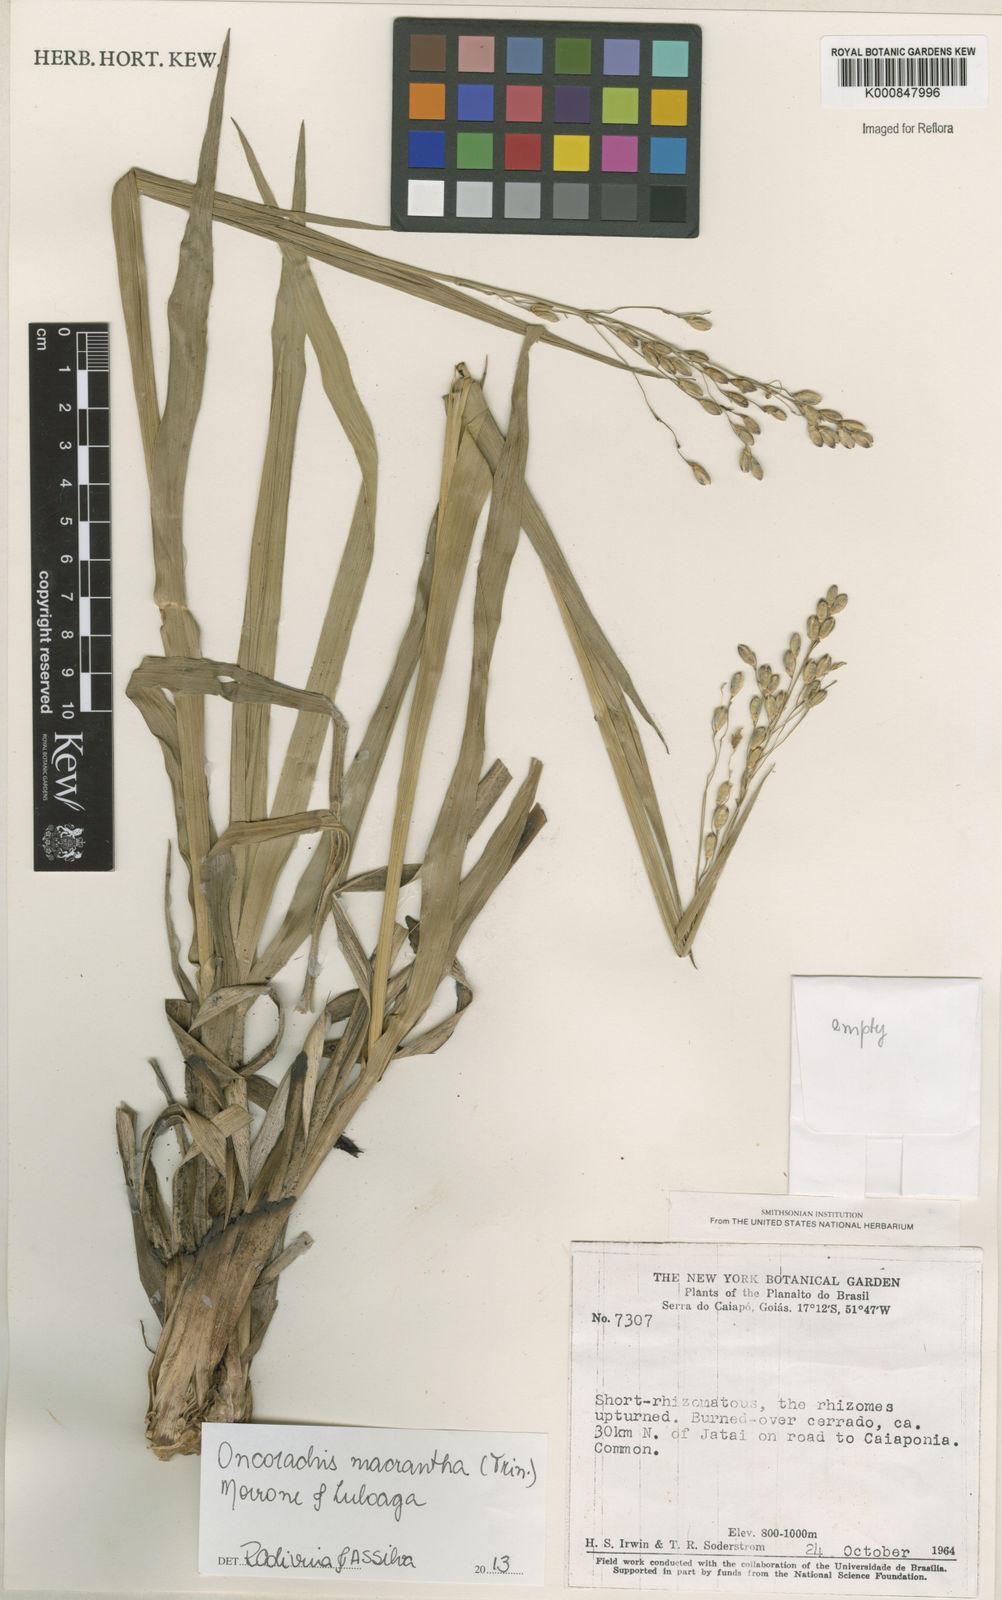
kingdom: Plantae
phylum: Tracheophyta
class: Liliopsida
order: Poales
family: Poaceae
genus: Oncorachis
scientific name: Oncorachis macrantha
